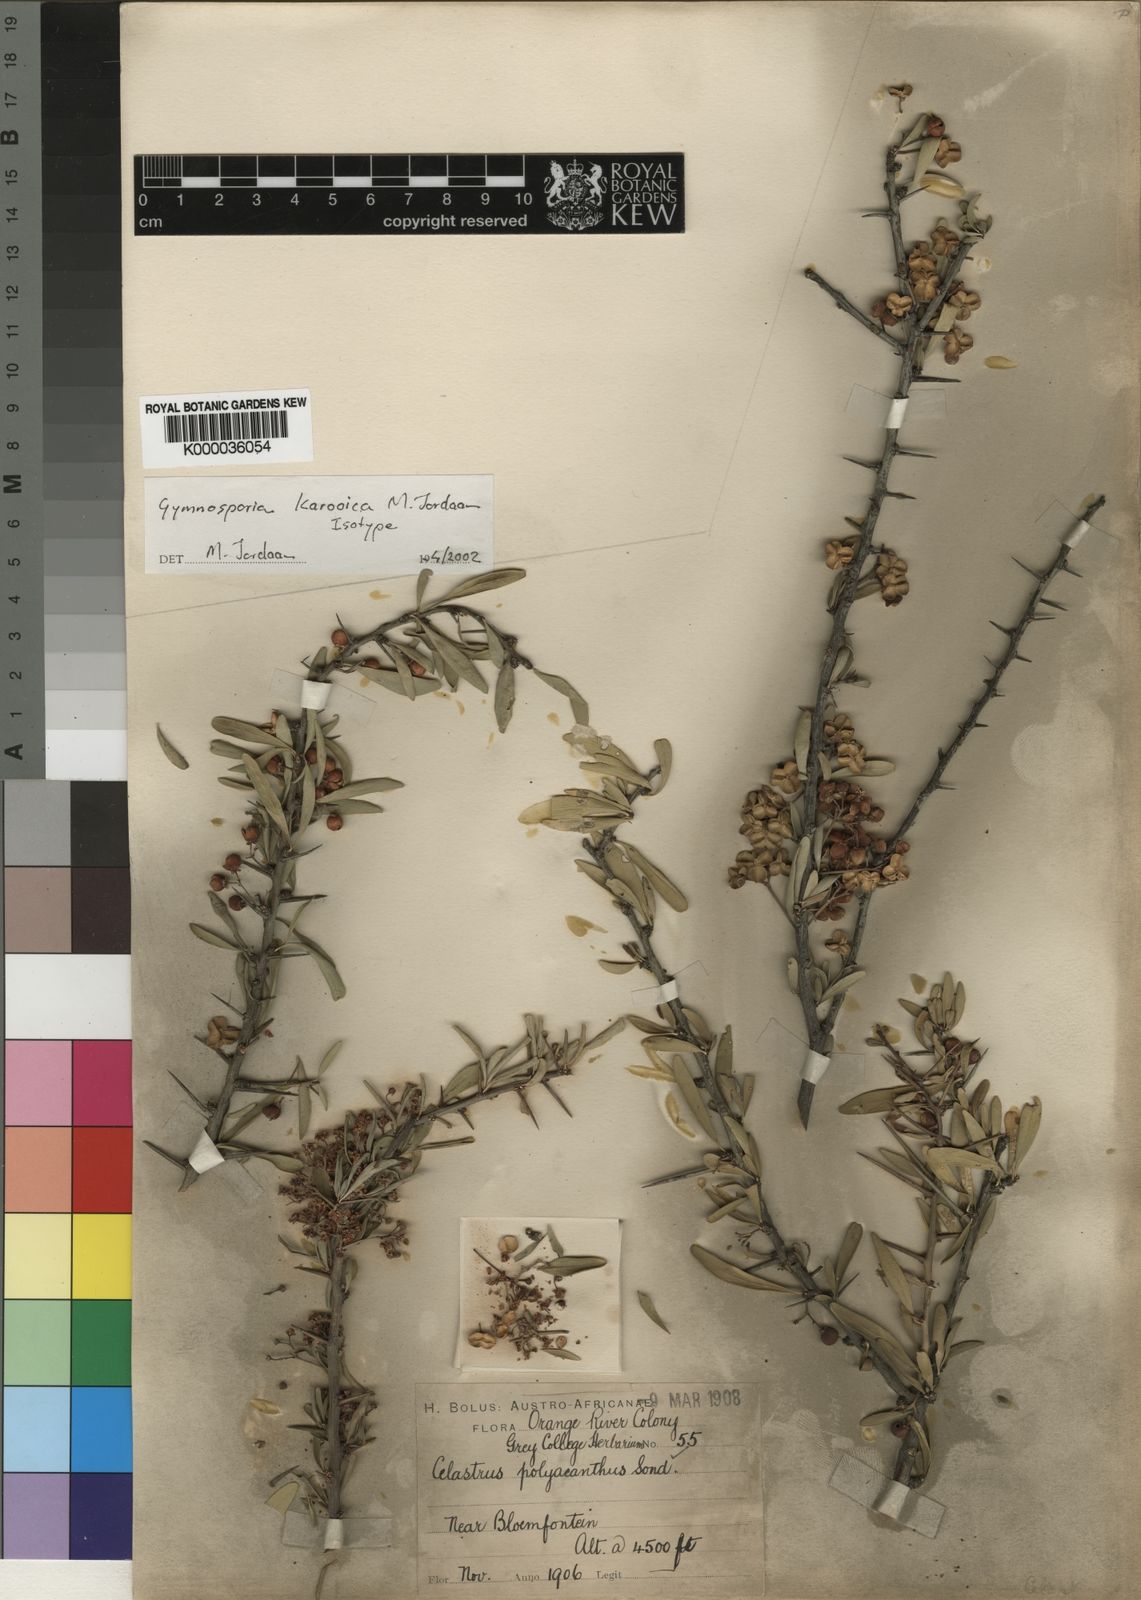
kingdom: Plantae
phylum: Tracheophyta
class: Magnoliopsida
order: Celastrales
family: Celastraceae
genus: Maytenus
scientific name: Maytenus
